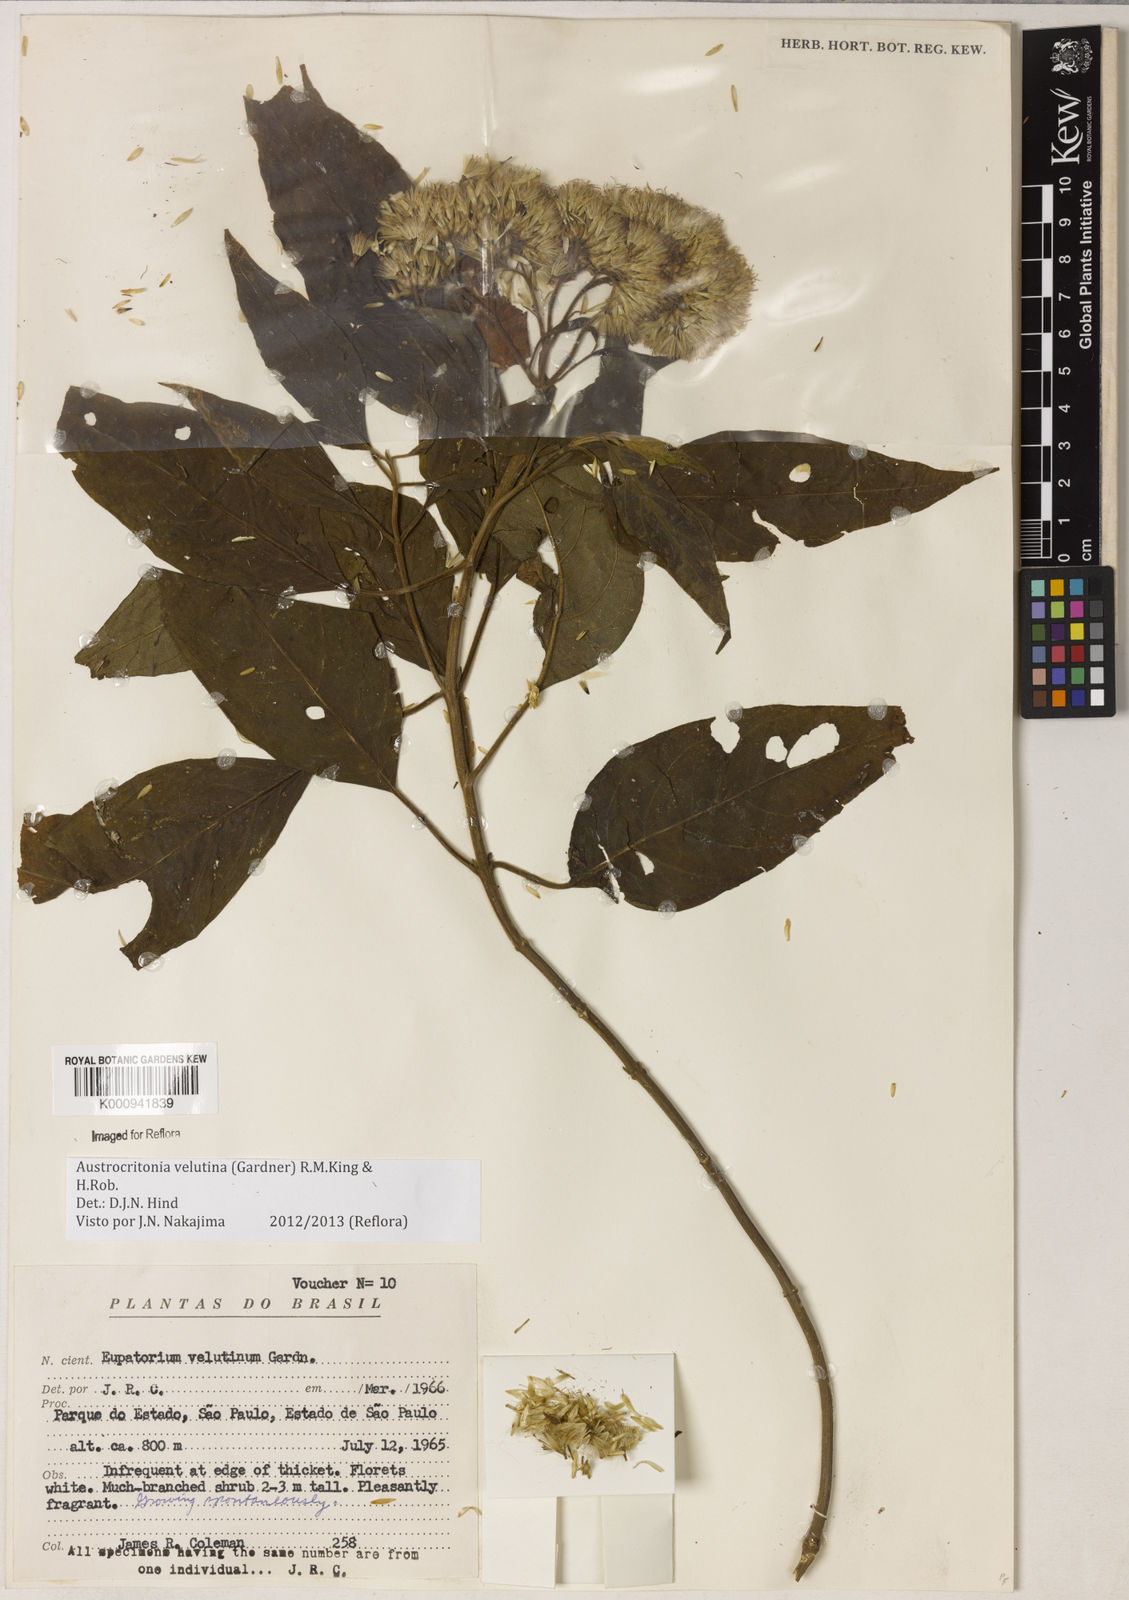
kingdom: Plantae
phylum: Tracheophyta
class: Magnoliopsida
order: Asterales
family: Asteraceae
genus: Austrocritonia
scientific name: Austrocritonia velutina
